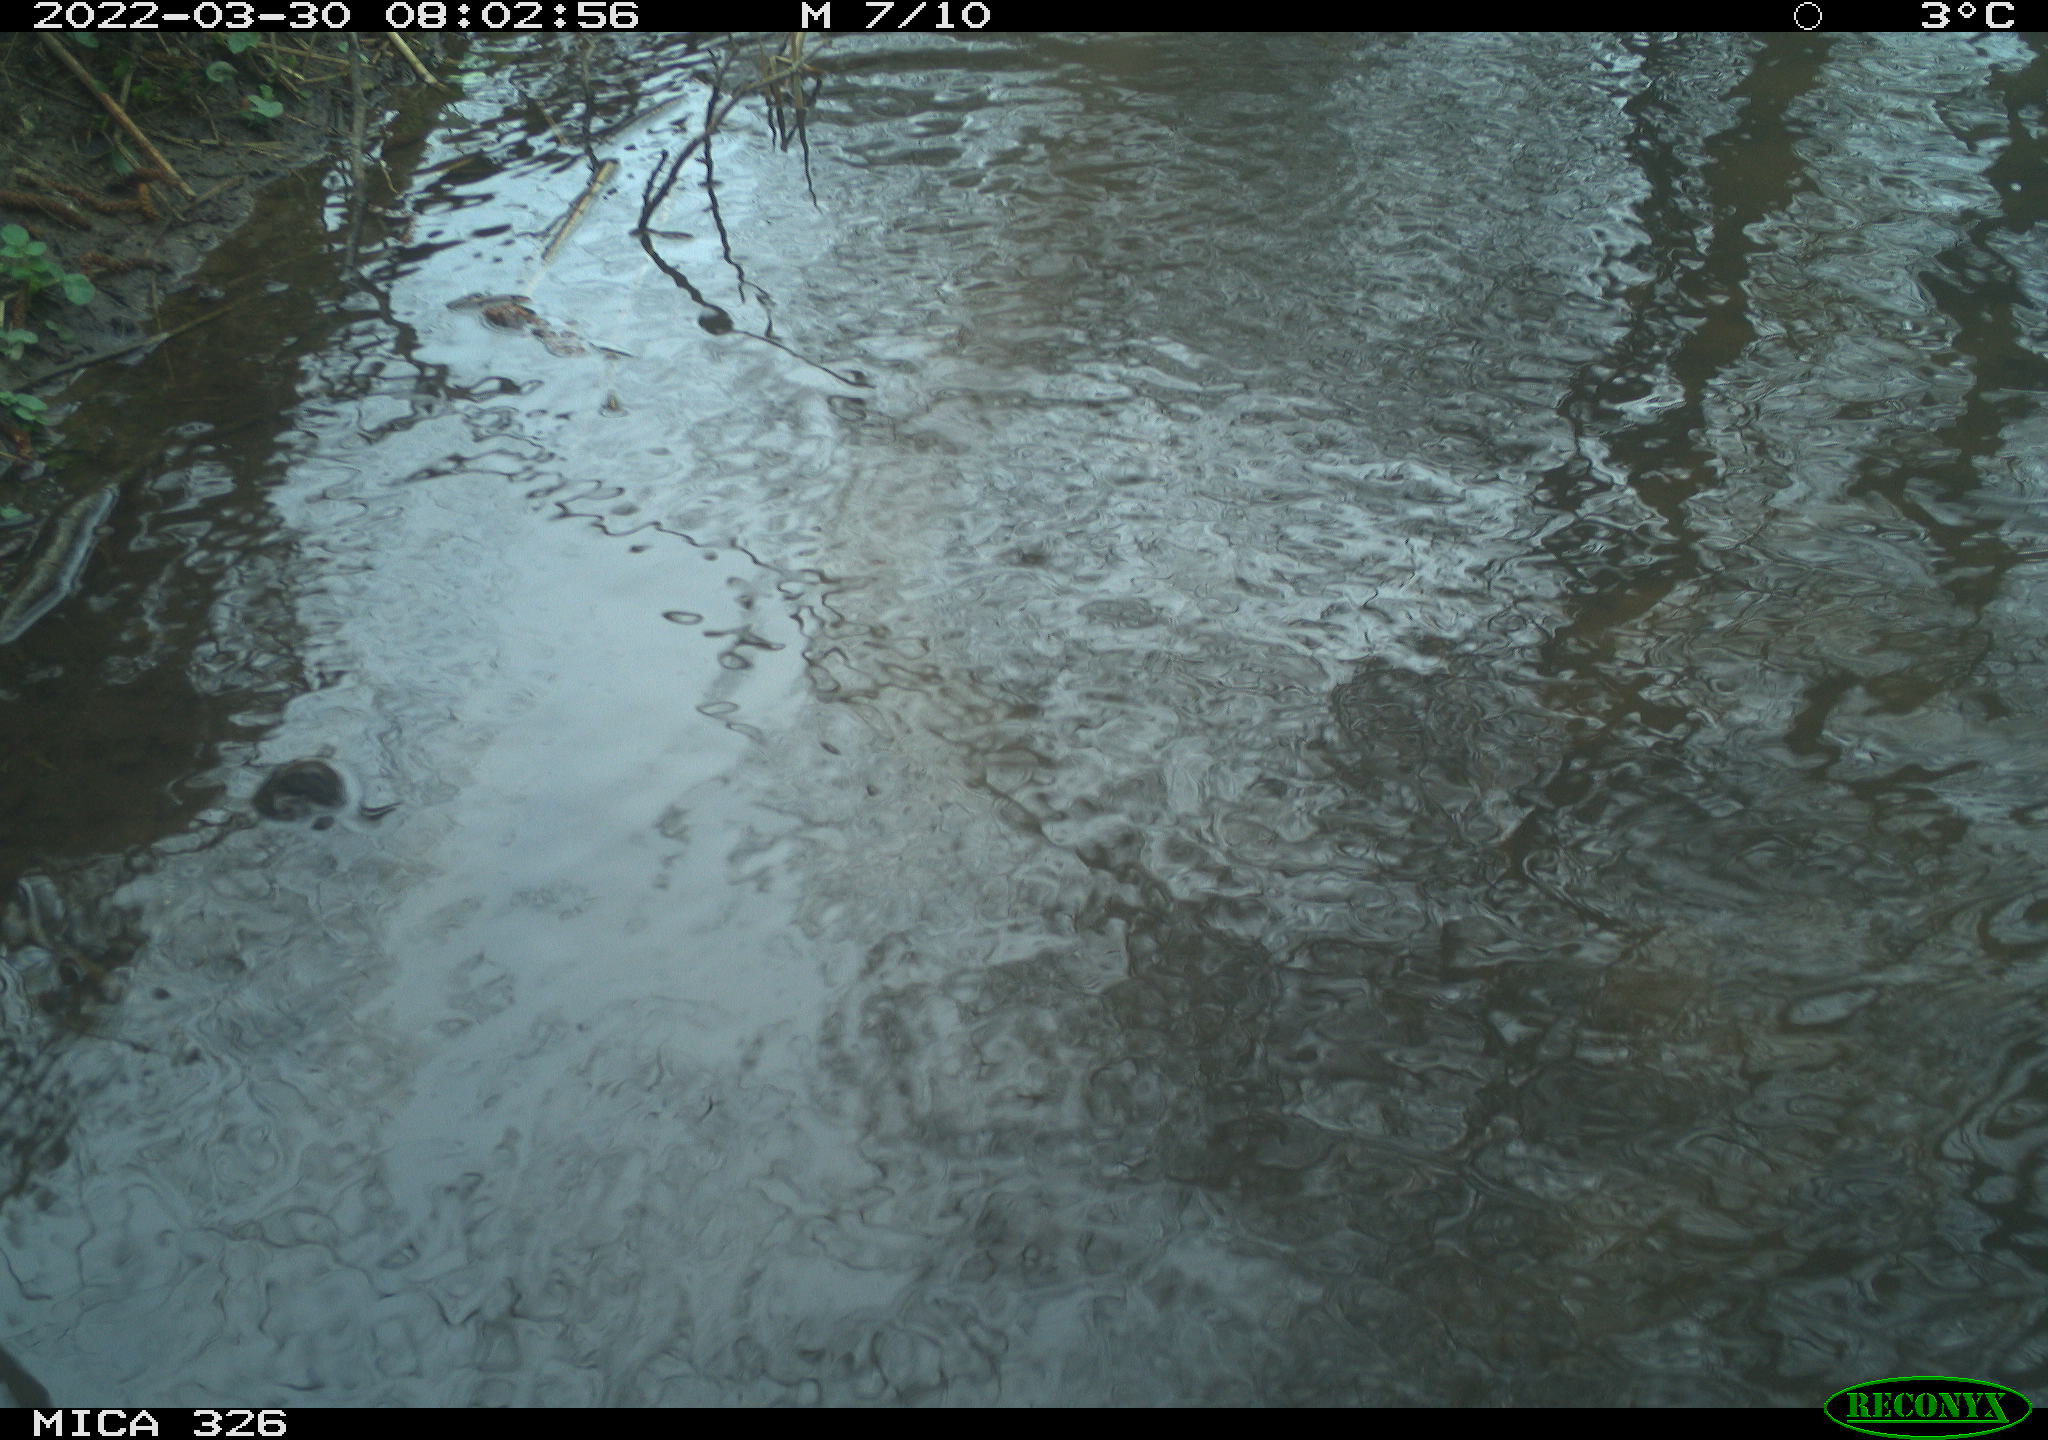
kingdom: Animalia
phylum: Chordata
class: Mammalia
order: Rodentia
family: Cricetidae
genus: Ondatra
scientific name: Ondatra zibethicus
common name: Muskrat
